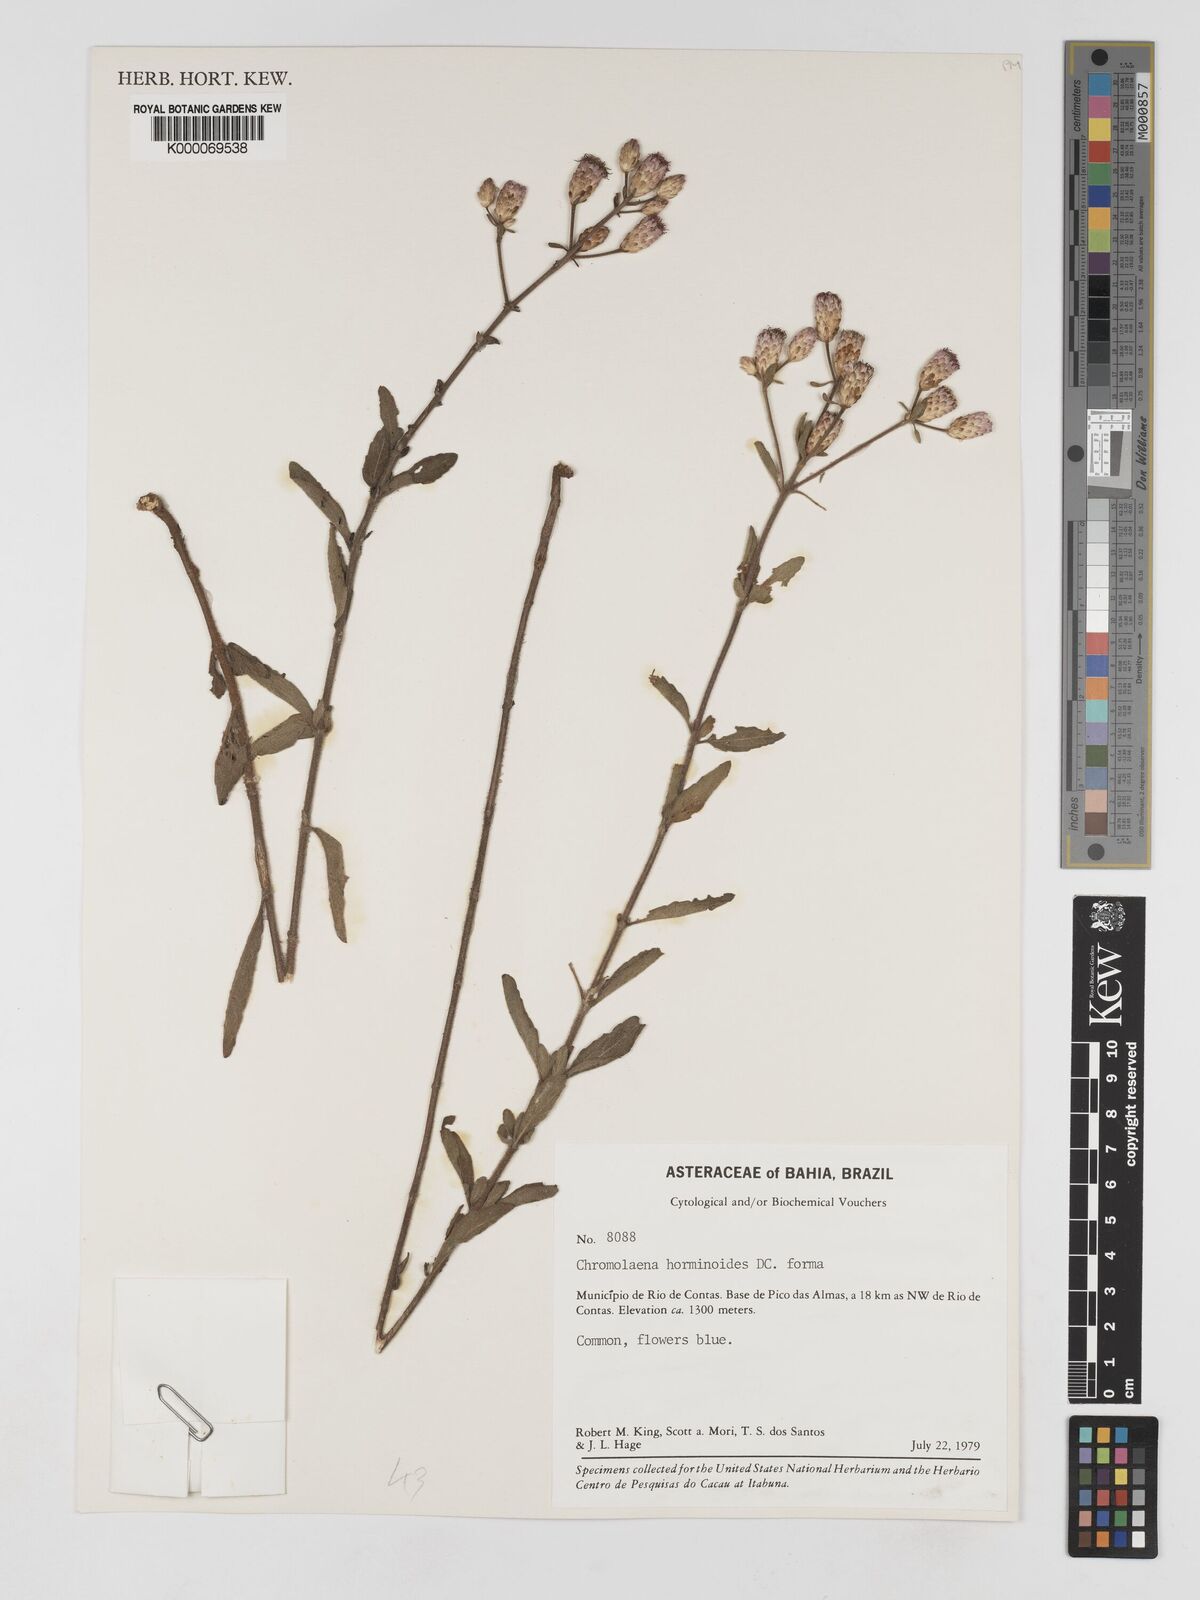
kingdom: Plantae
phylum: Tracheophyta
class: Magnoliopsida
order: Asterales
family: Asteraceae
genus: Chromolaena
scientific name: Chromolaena horminoides
